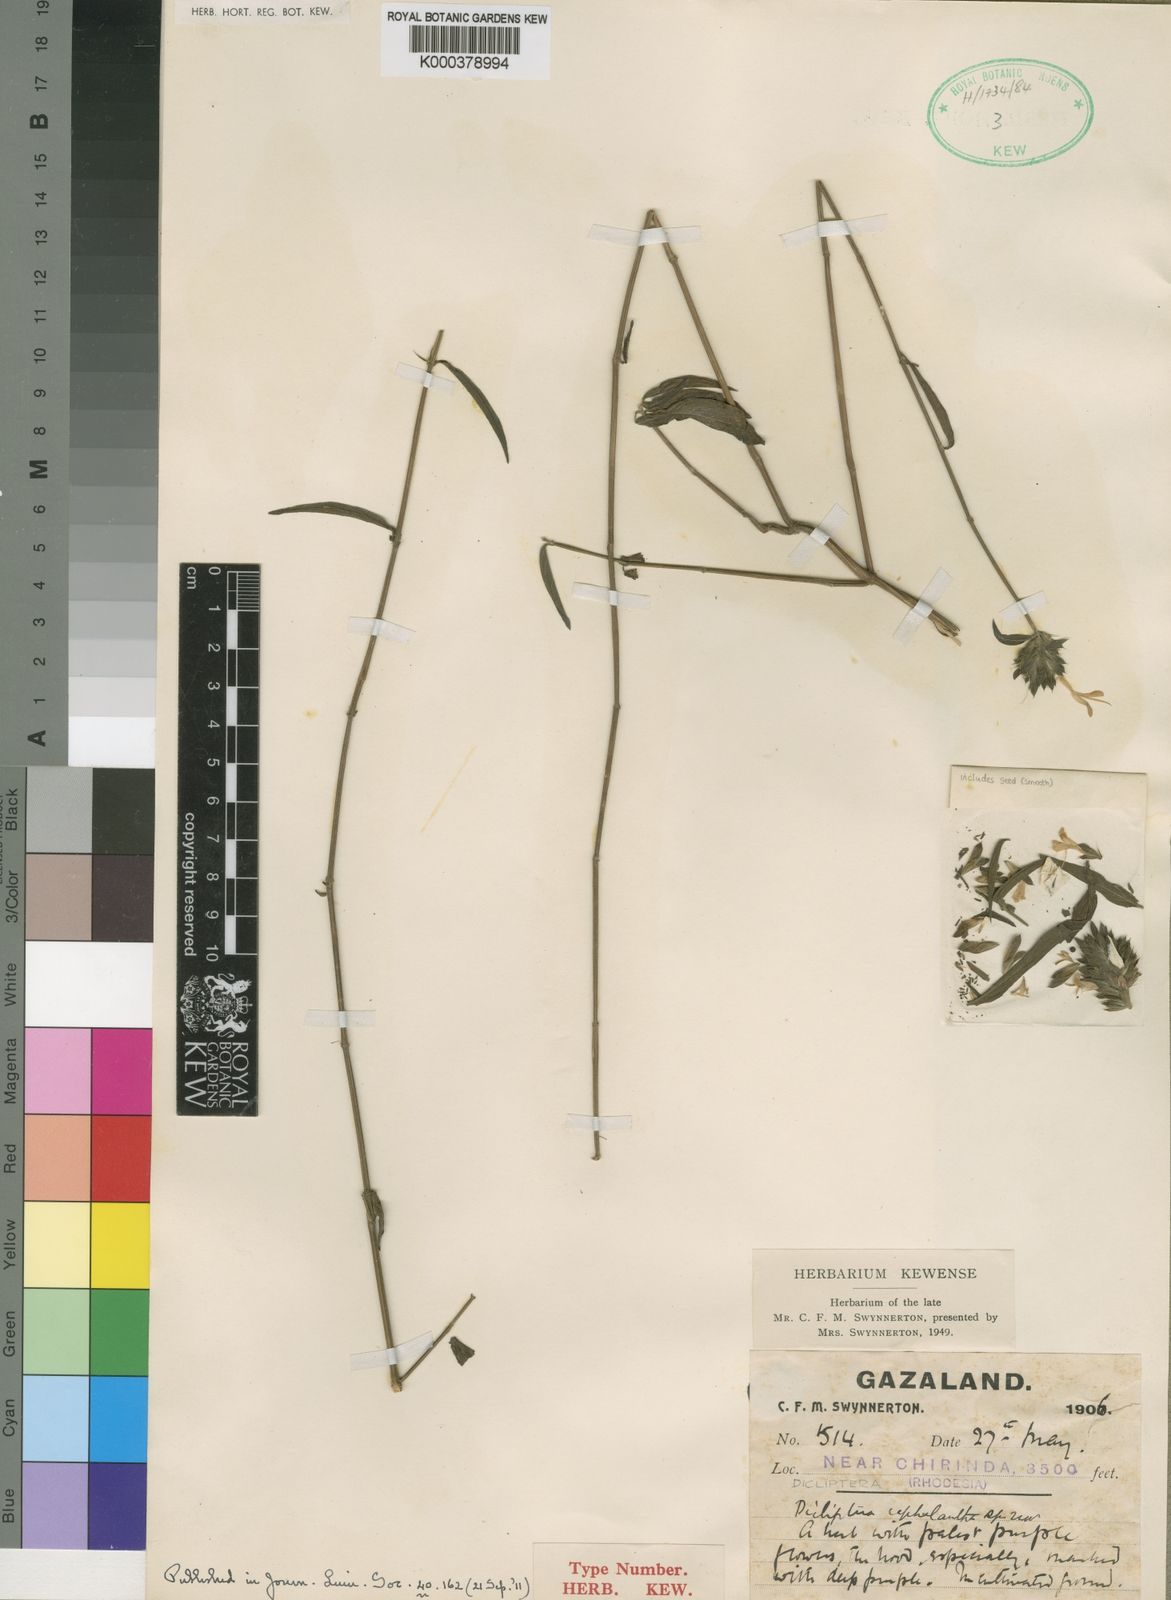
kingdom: Plantae
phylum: Tracheophyta
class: Magnoliopsida
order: Lamiales
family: Acanthaceae
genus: Dicliptera
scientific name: Dicliptera carvalhoi
